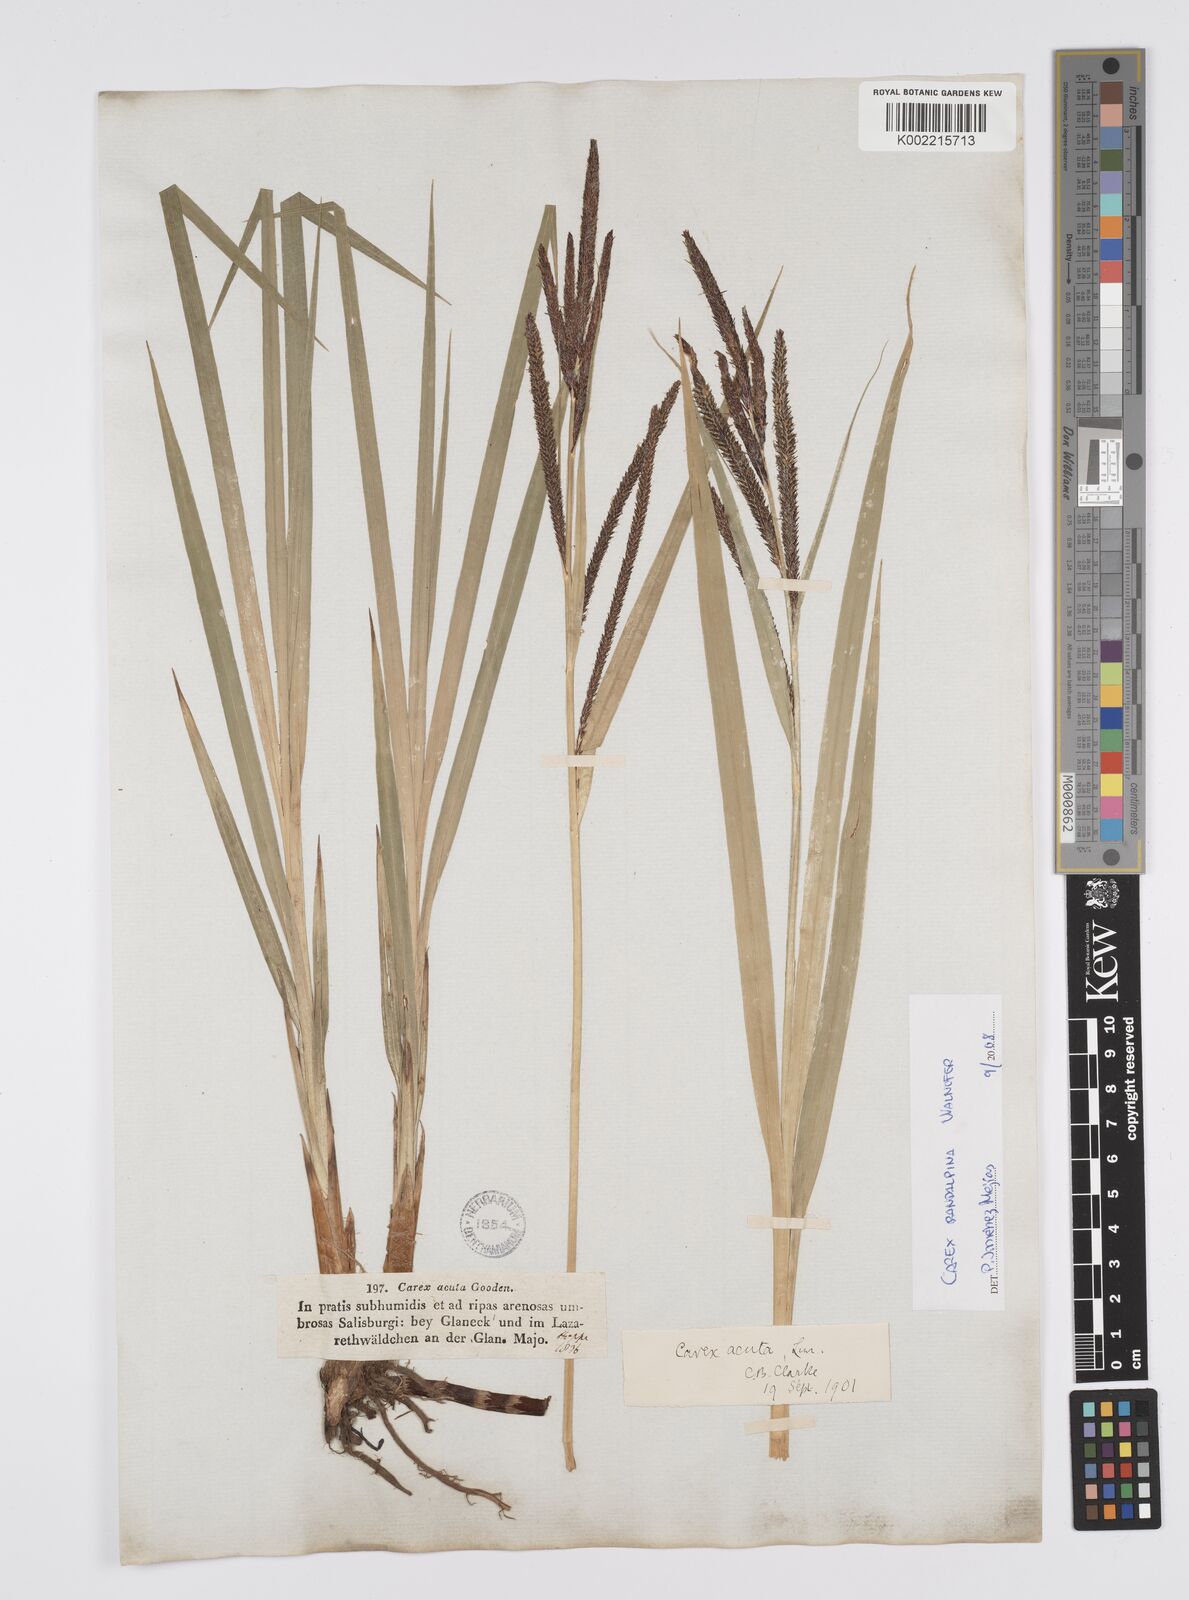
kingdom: Plantae
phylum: Tracheophyta
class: Liliopsida
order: Poales
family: Cyperaceae
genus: Carex
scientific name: Carex randalpina
